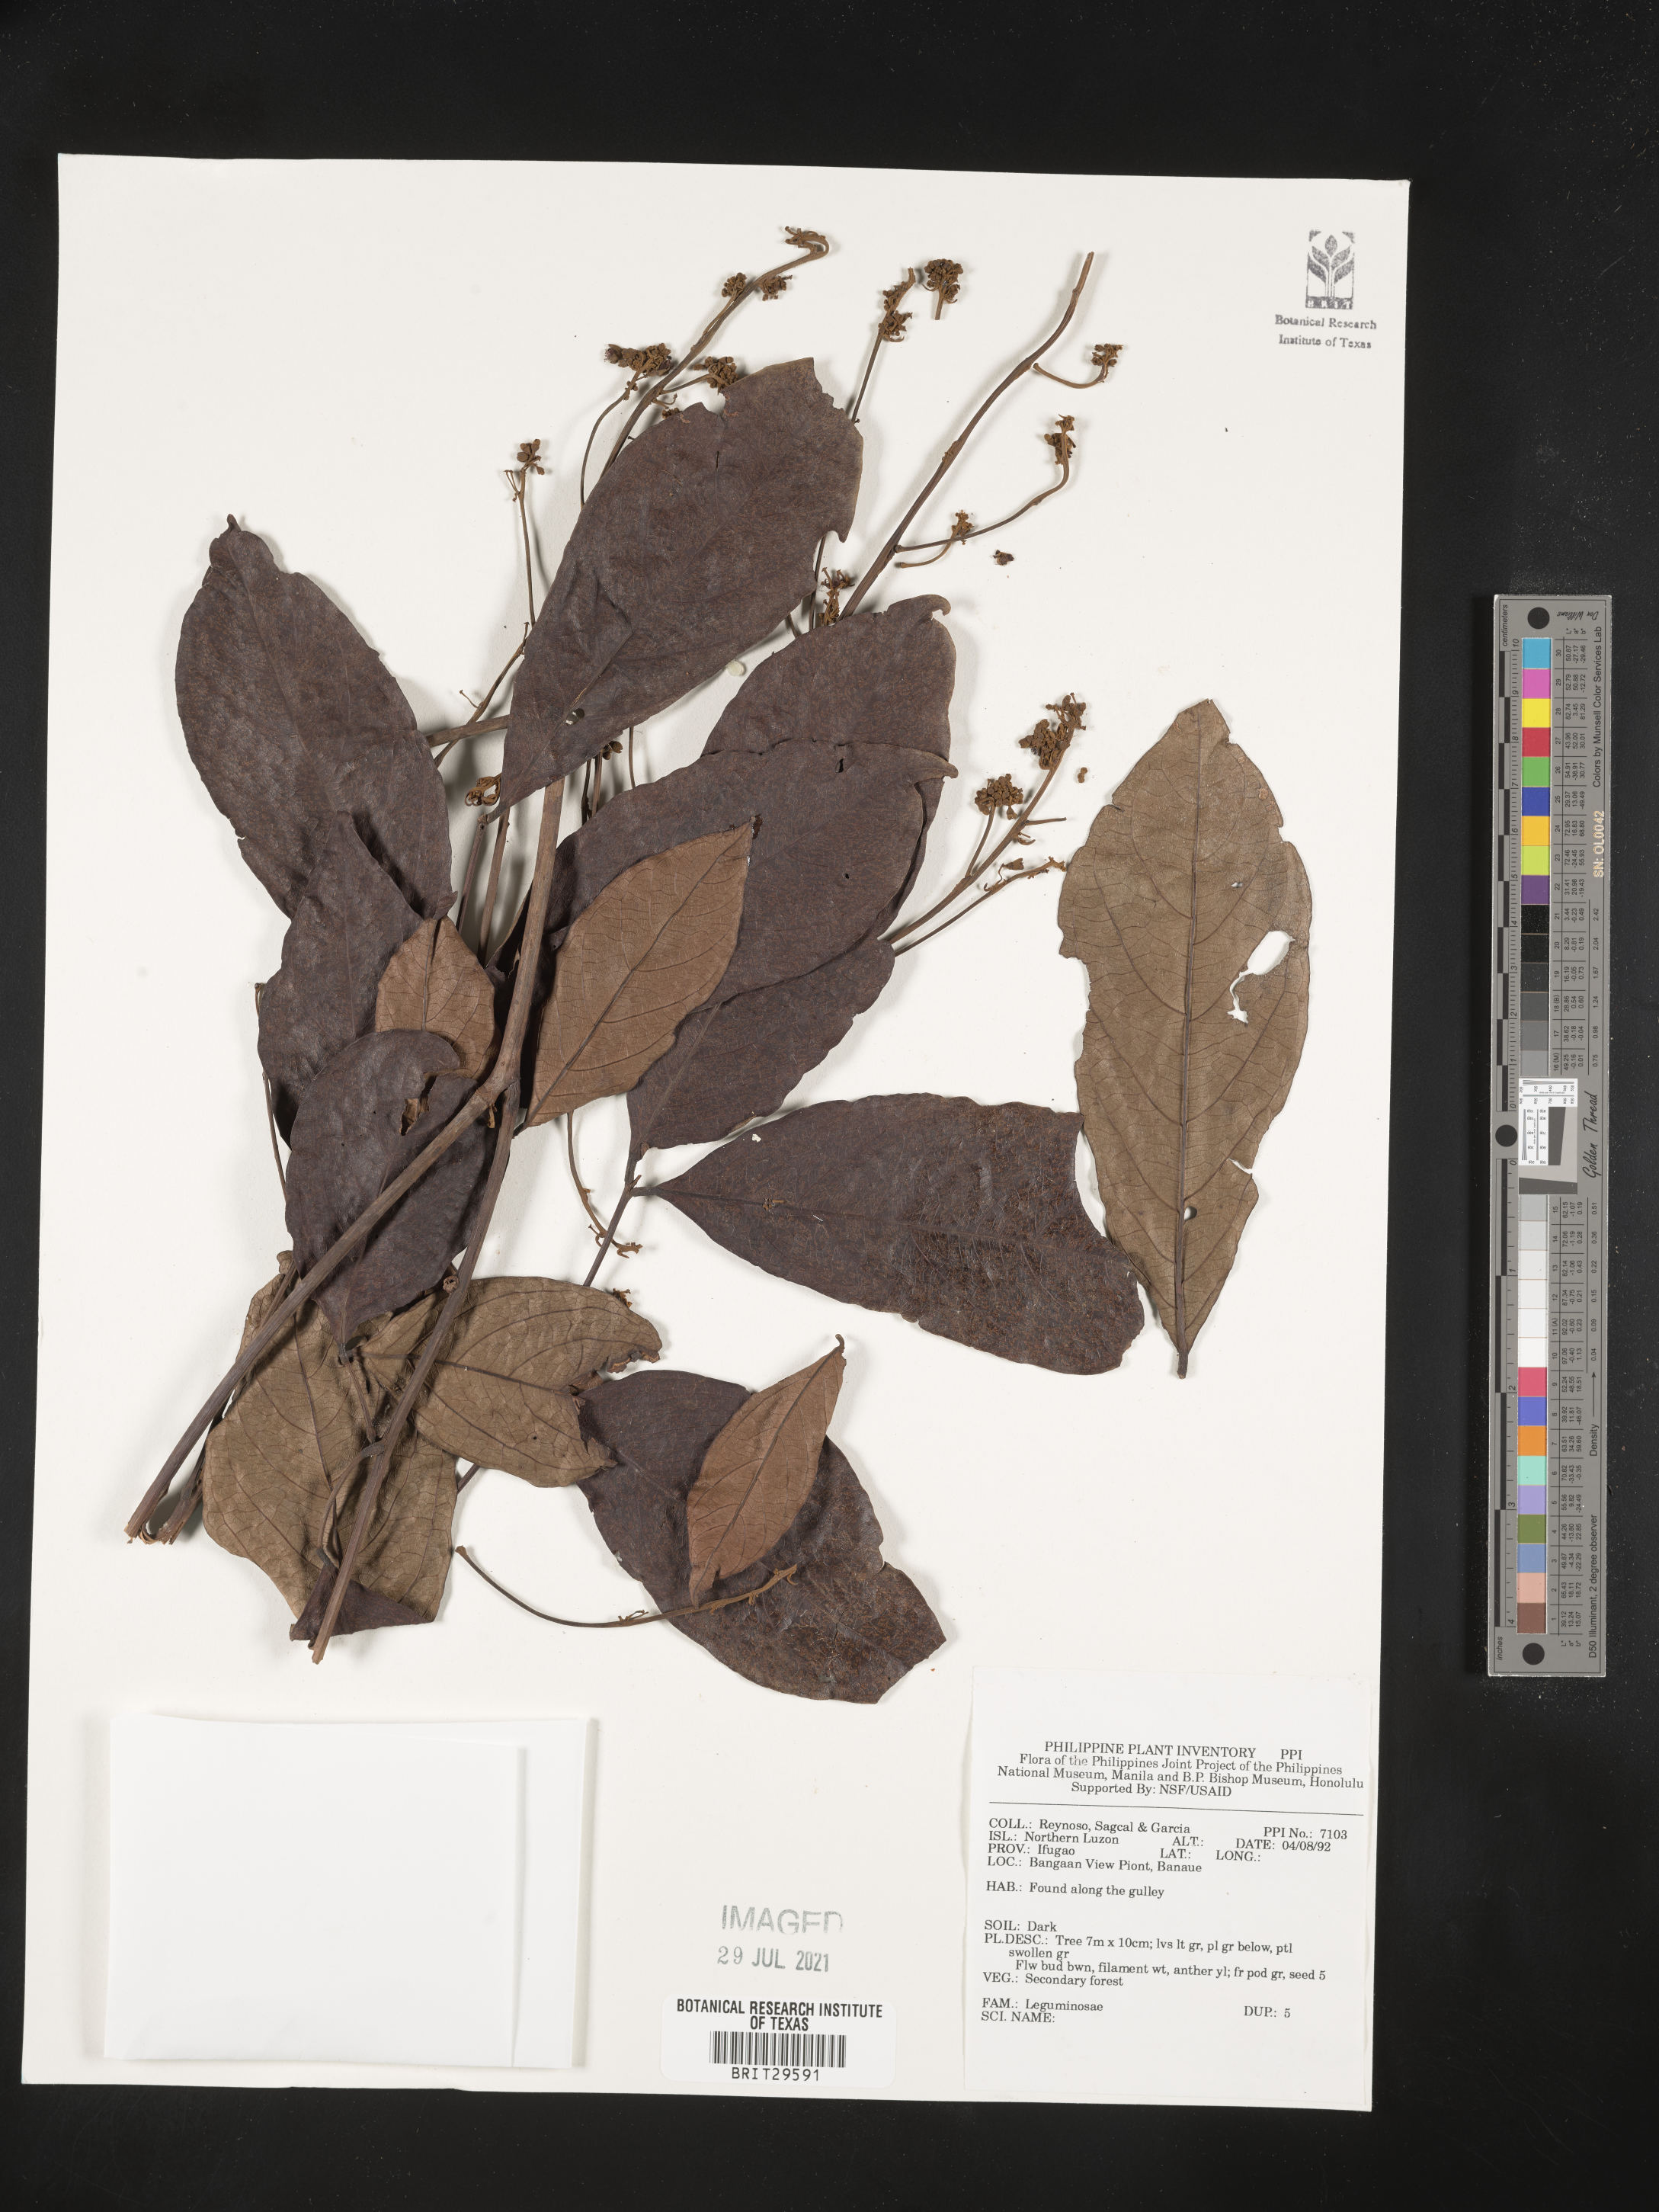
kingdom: Plantae
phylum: Tracheophyta
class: Magnoliopsida
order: Fabales
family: Fabaceae
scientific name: Fabaceae
